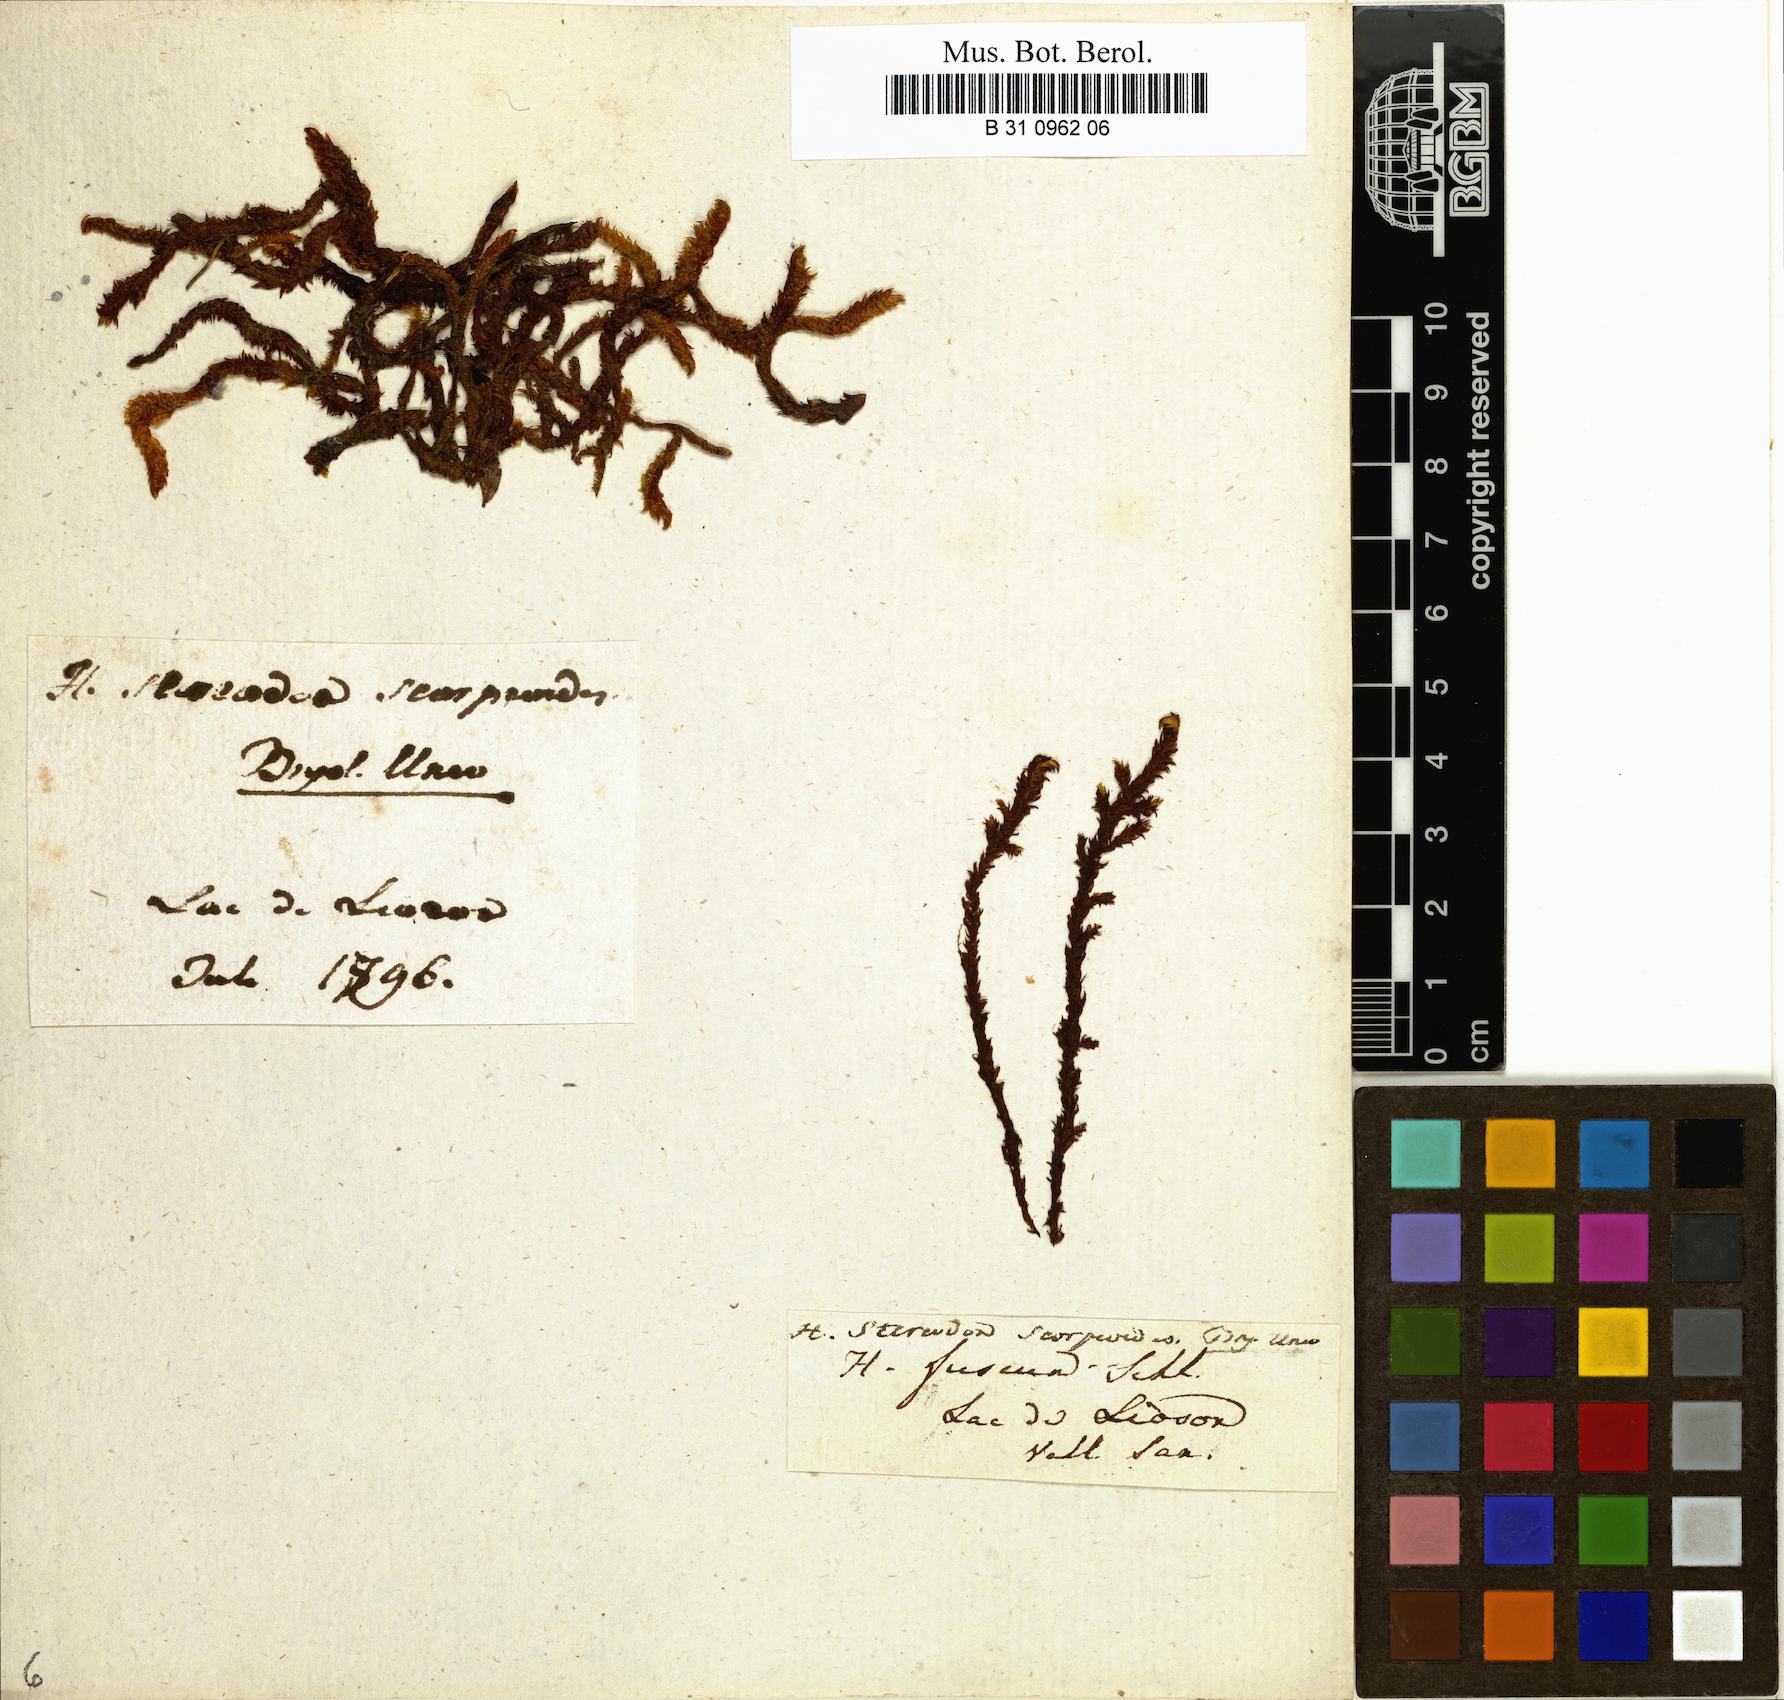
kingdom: Plantae
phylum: Bryophyta
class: Bryopsida
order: Hypnales
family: Scorpidiaceae
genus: Scorpidium
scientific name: Scorpidium scorpioides
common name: Hooked scorpion moss
